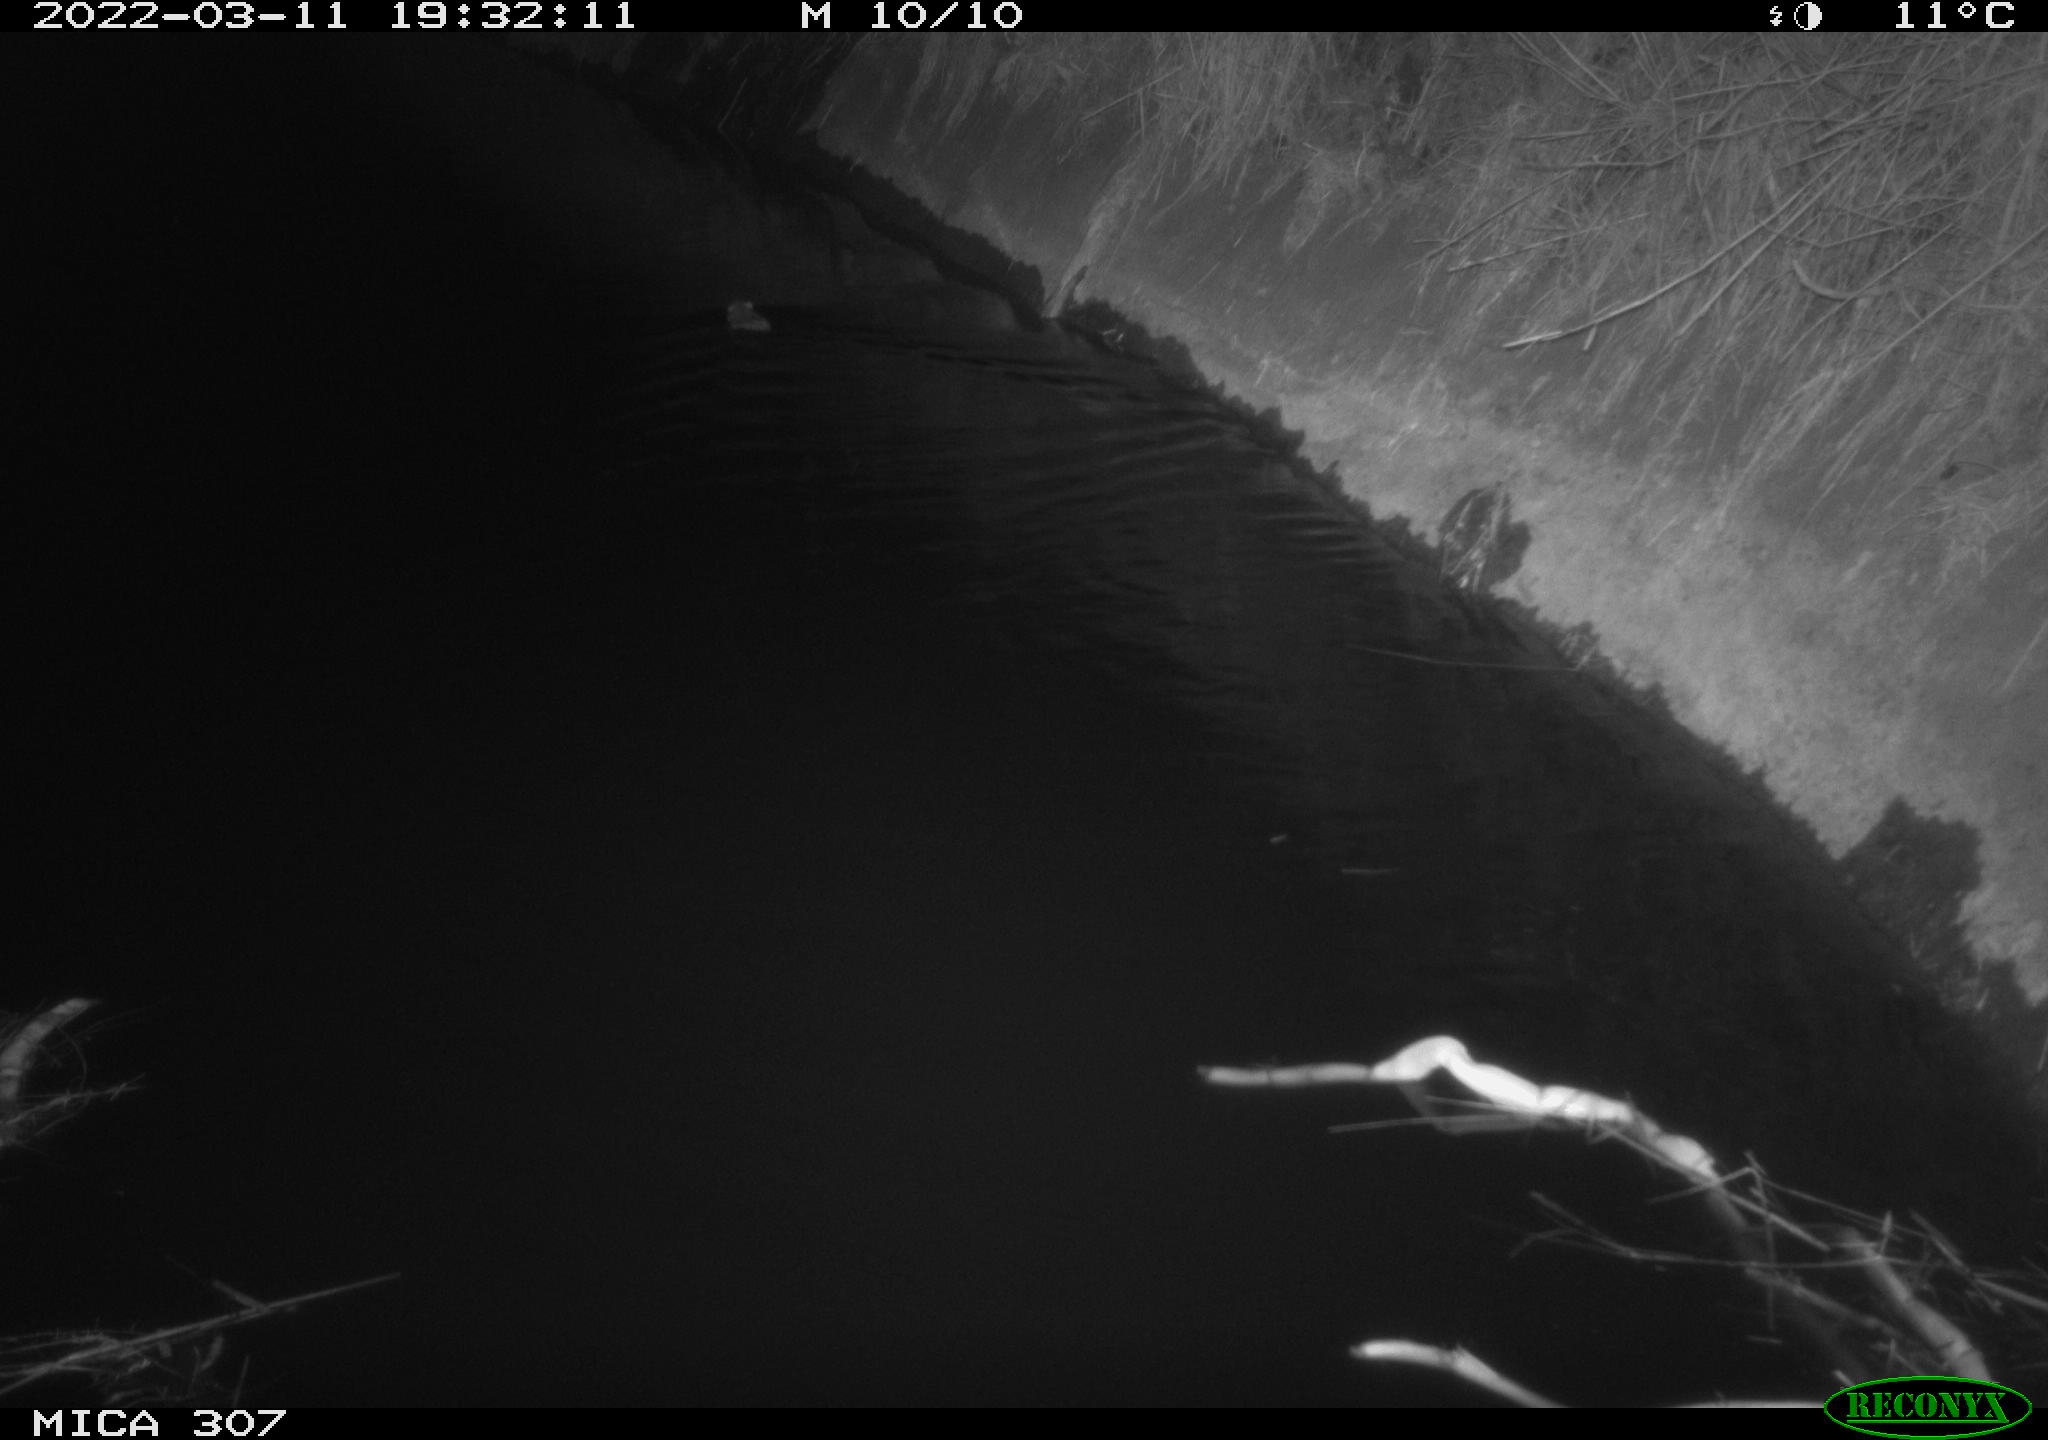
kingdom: Animalia
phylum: Chordata
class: Mammalia
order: Rodentia
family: Muridae
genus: Rattus
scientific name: Rattus norvegicus
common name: Brown rat
